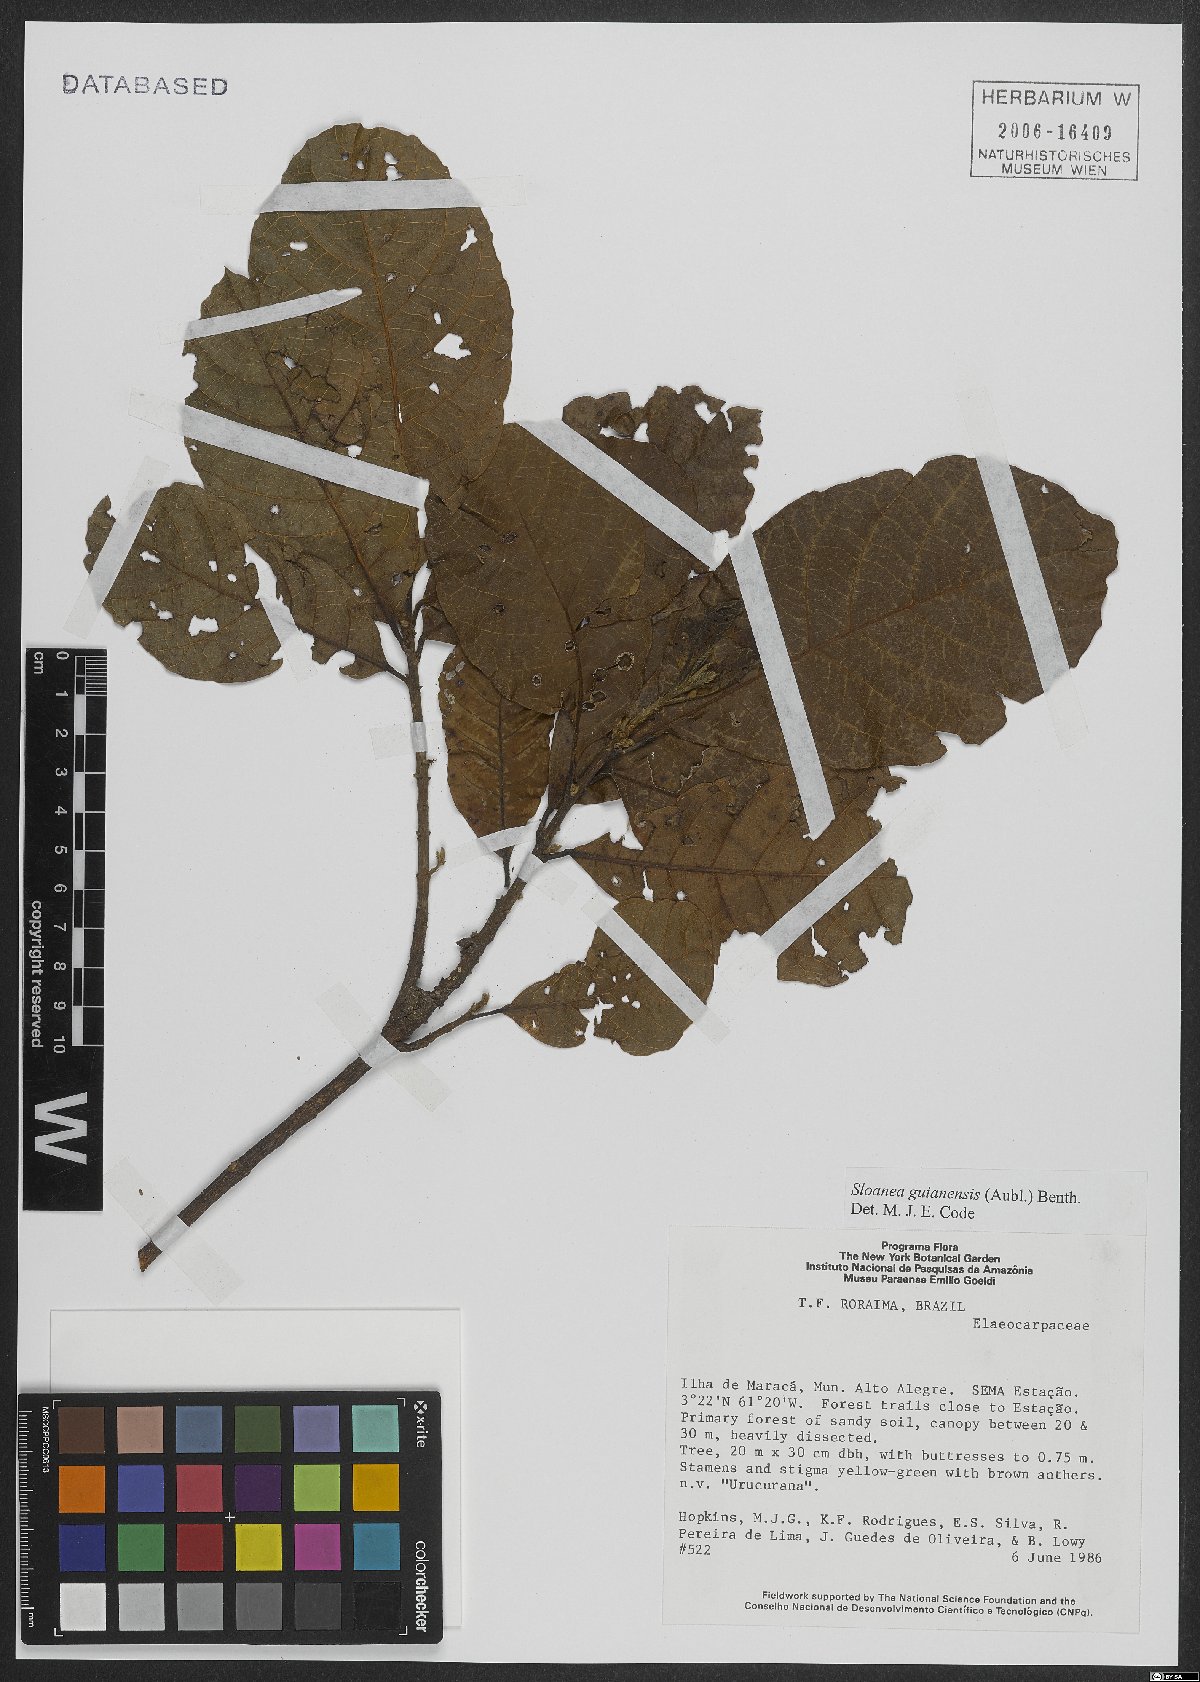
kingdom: Plantae
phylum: Tracheophyta
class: Magnoliopsida
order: Oxalidales
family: Elaeocarpaceae
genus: Sloanea
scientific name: Sloanea guianensis
